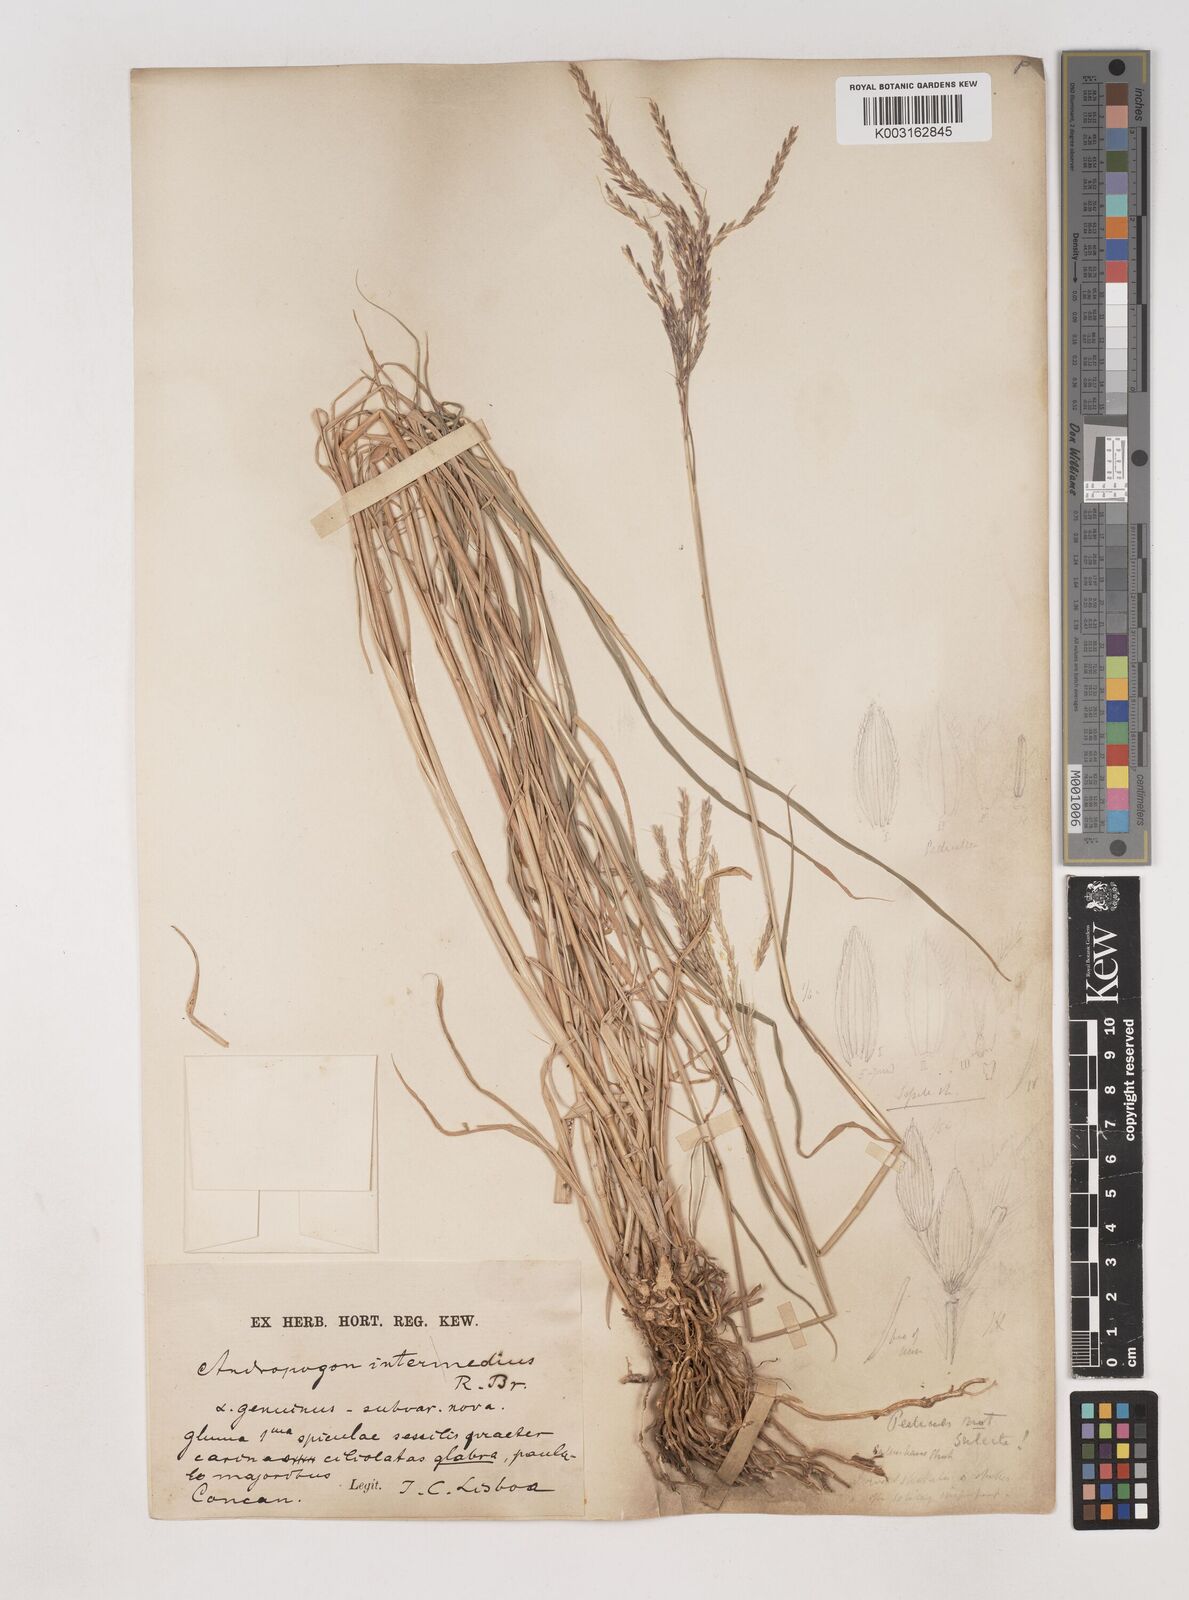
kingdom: Plantae
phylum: Tracheophyta
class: Liliopsida
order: Poales
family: Poaceae
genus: Dichanthium
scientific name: Dichanthium annulatum
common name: Kleberg's bluestem
